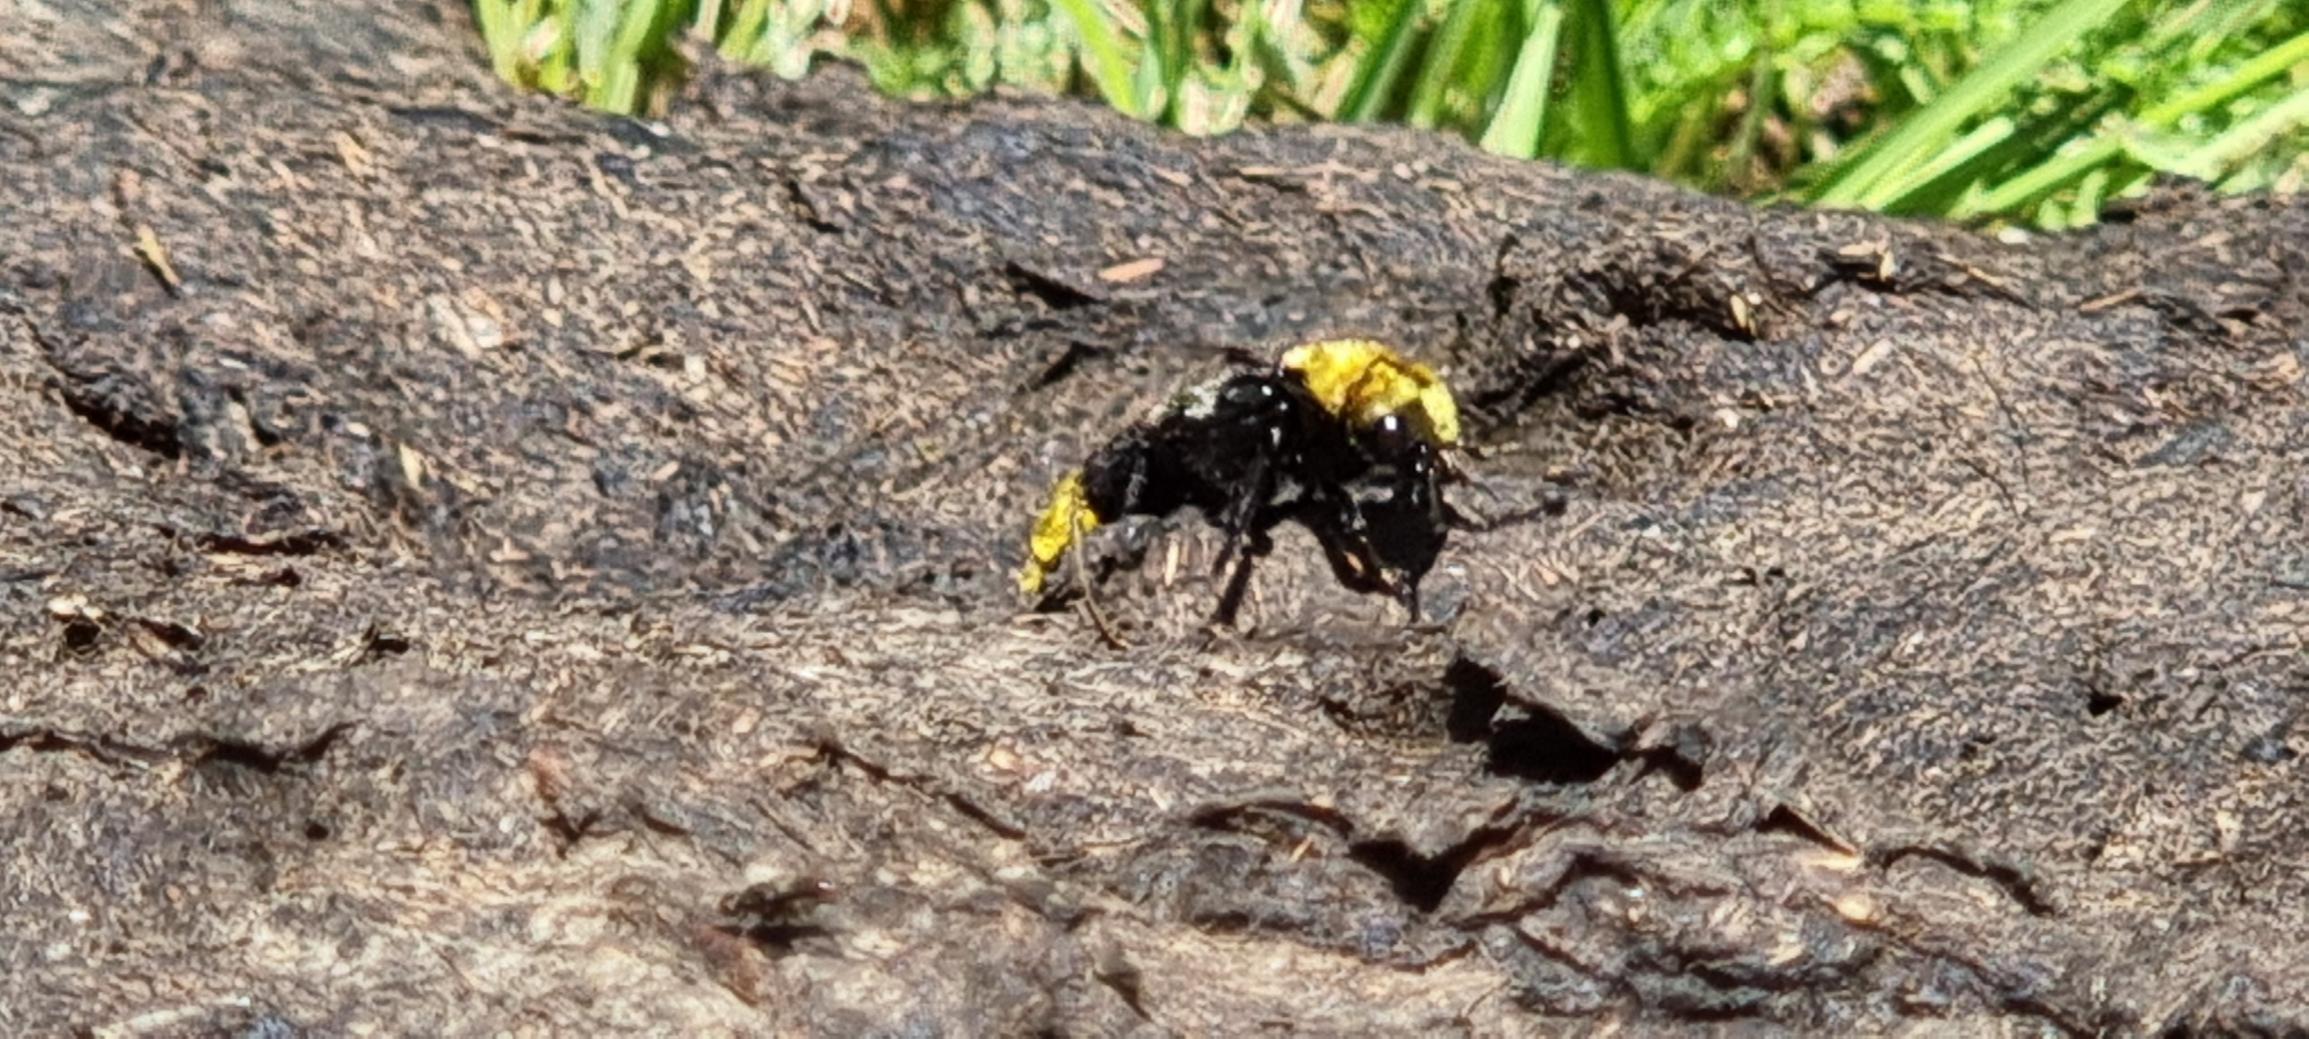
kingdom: Animalia
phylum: Arthropoda
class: Insecta
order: Coleoptera
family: Staphylinidae
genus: Emus
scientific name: Emus hirtus
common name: Humlerovbille
